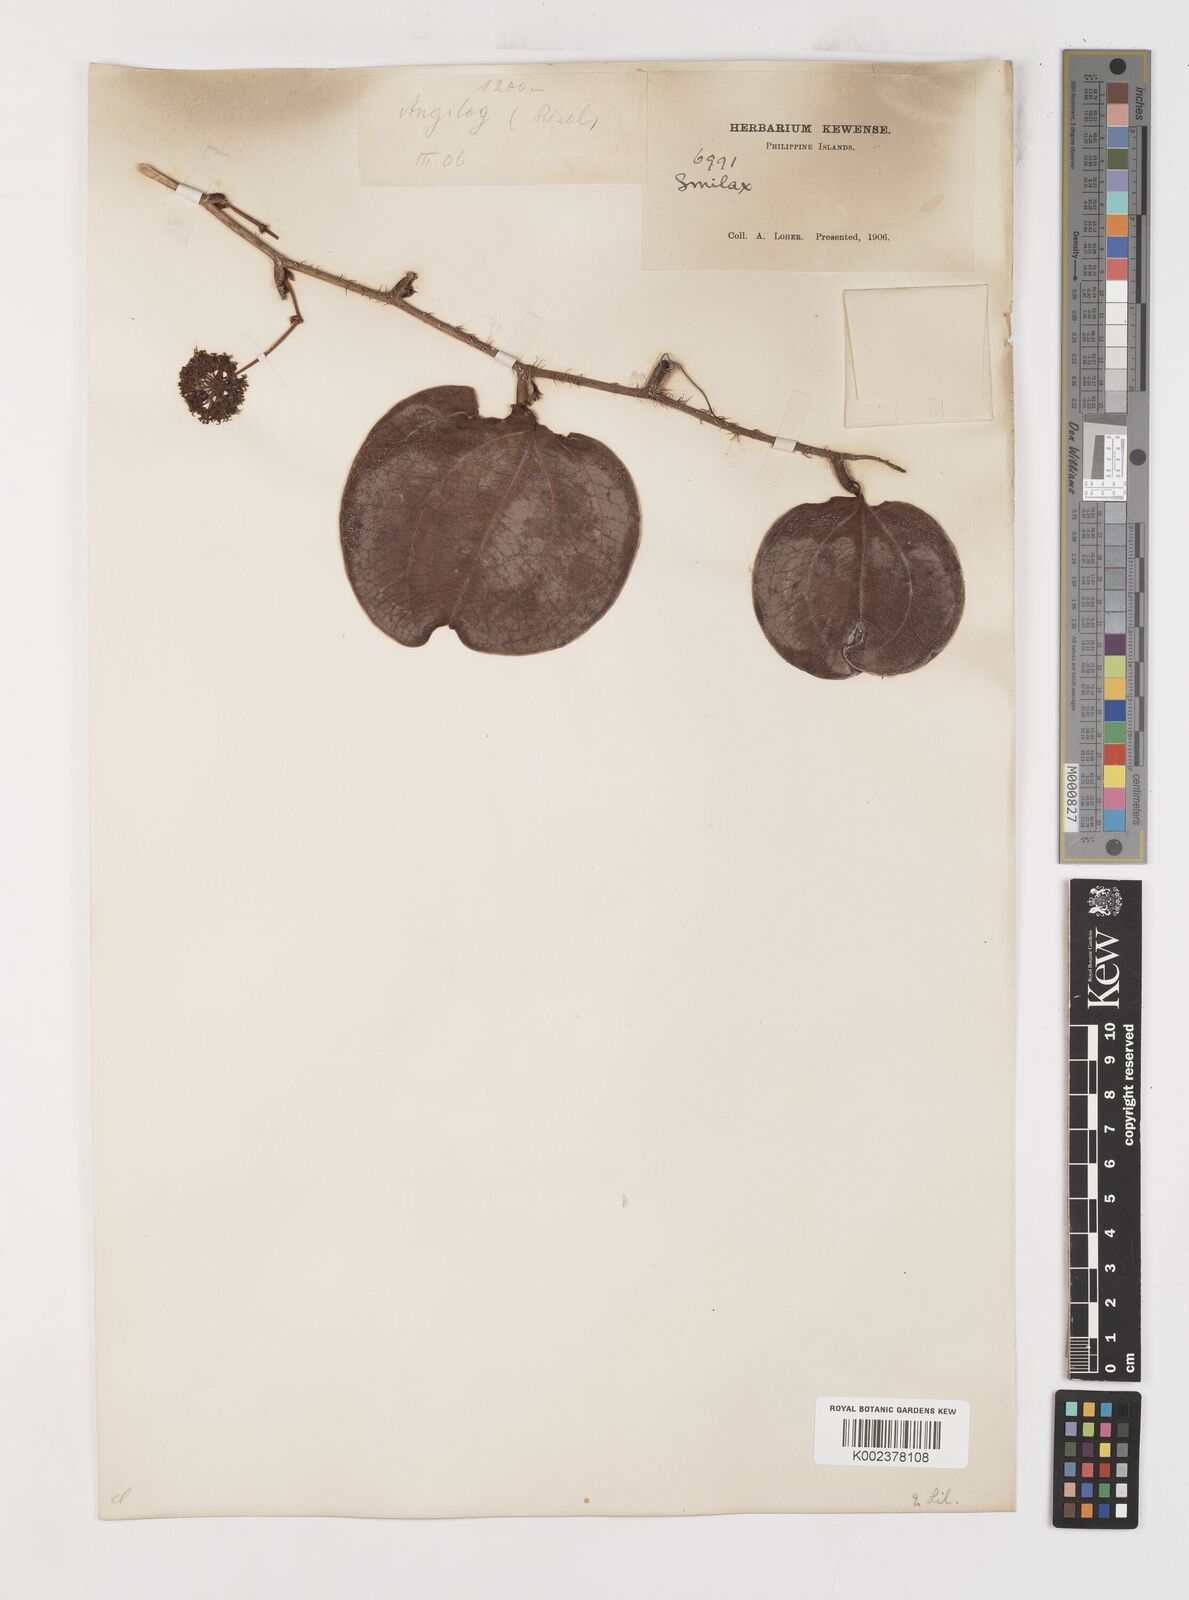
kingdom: Plantae
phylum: Tracheophyta
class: Liliopsida
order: Liliales
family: Smilacaceae
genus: Smilax
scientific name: Smilax
